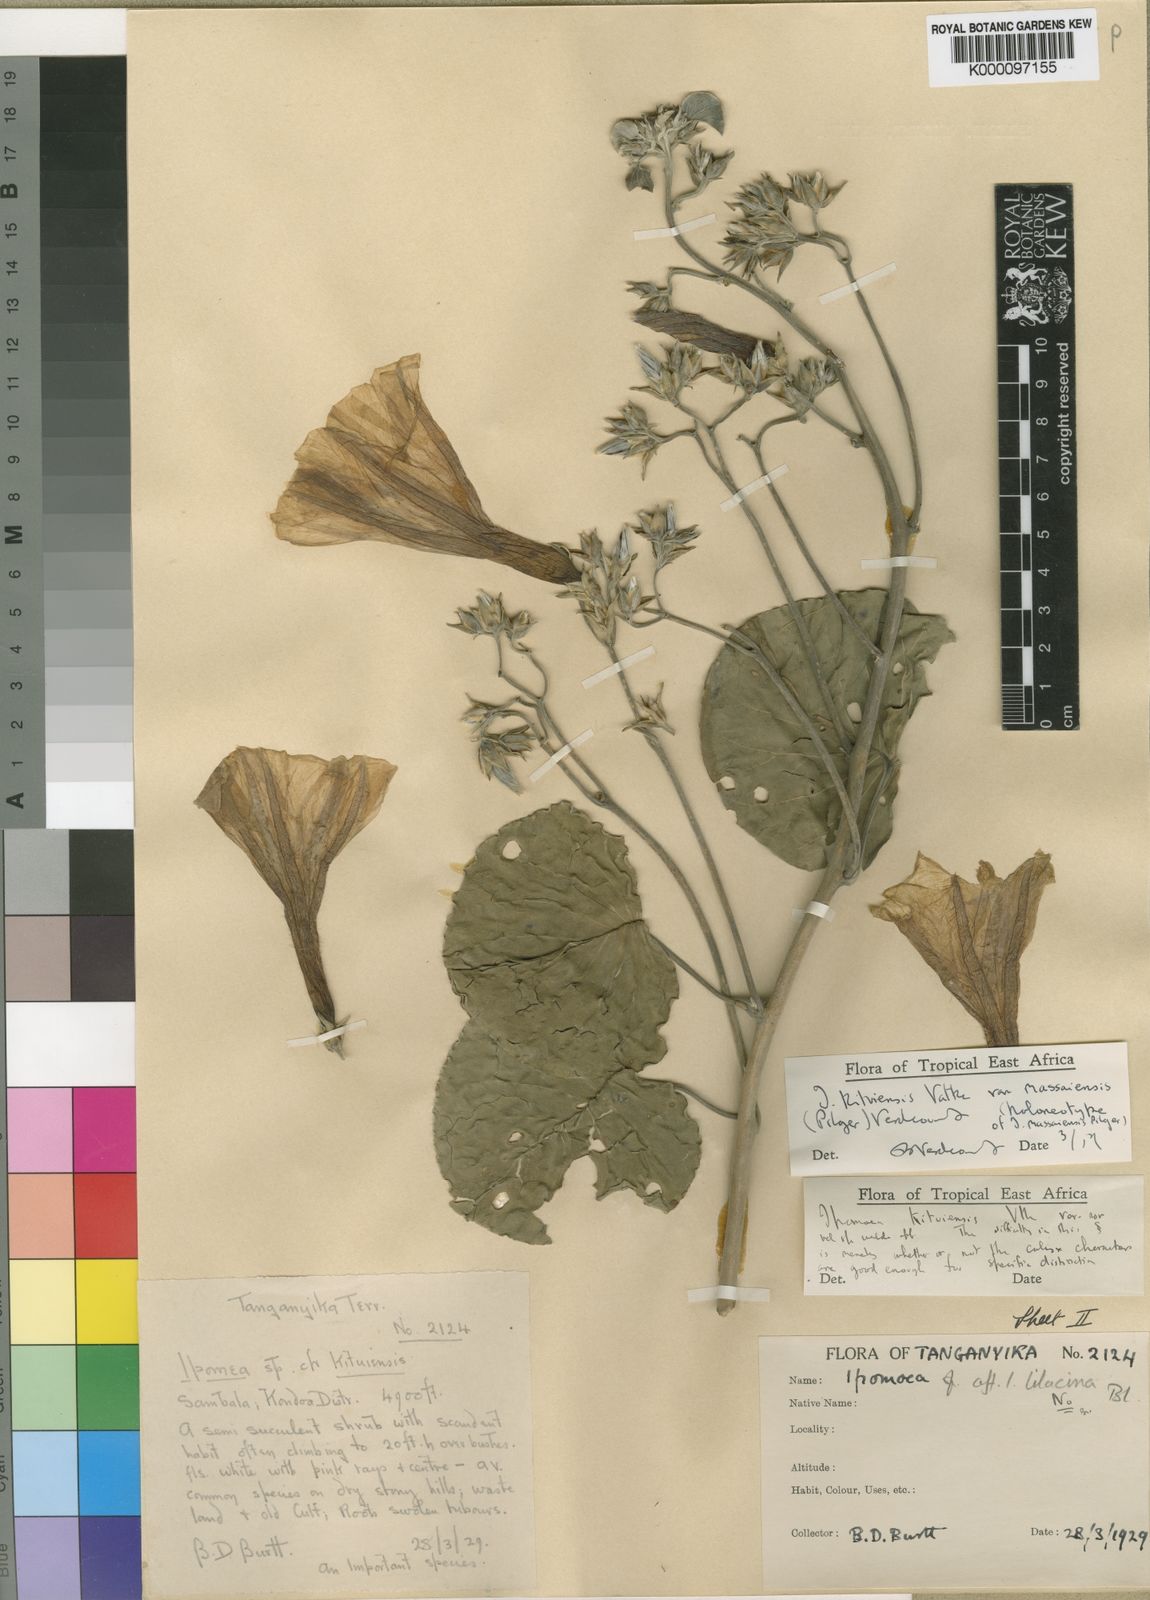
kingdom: Plantae
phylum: Tracheophyta
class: Magnoliopsida
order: Solanales
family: Convolvulaceae
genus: Ipomoea
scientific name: Ipomoea kituiensis
